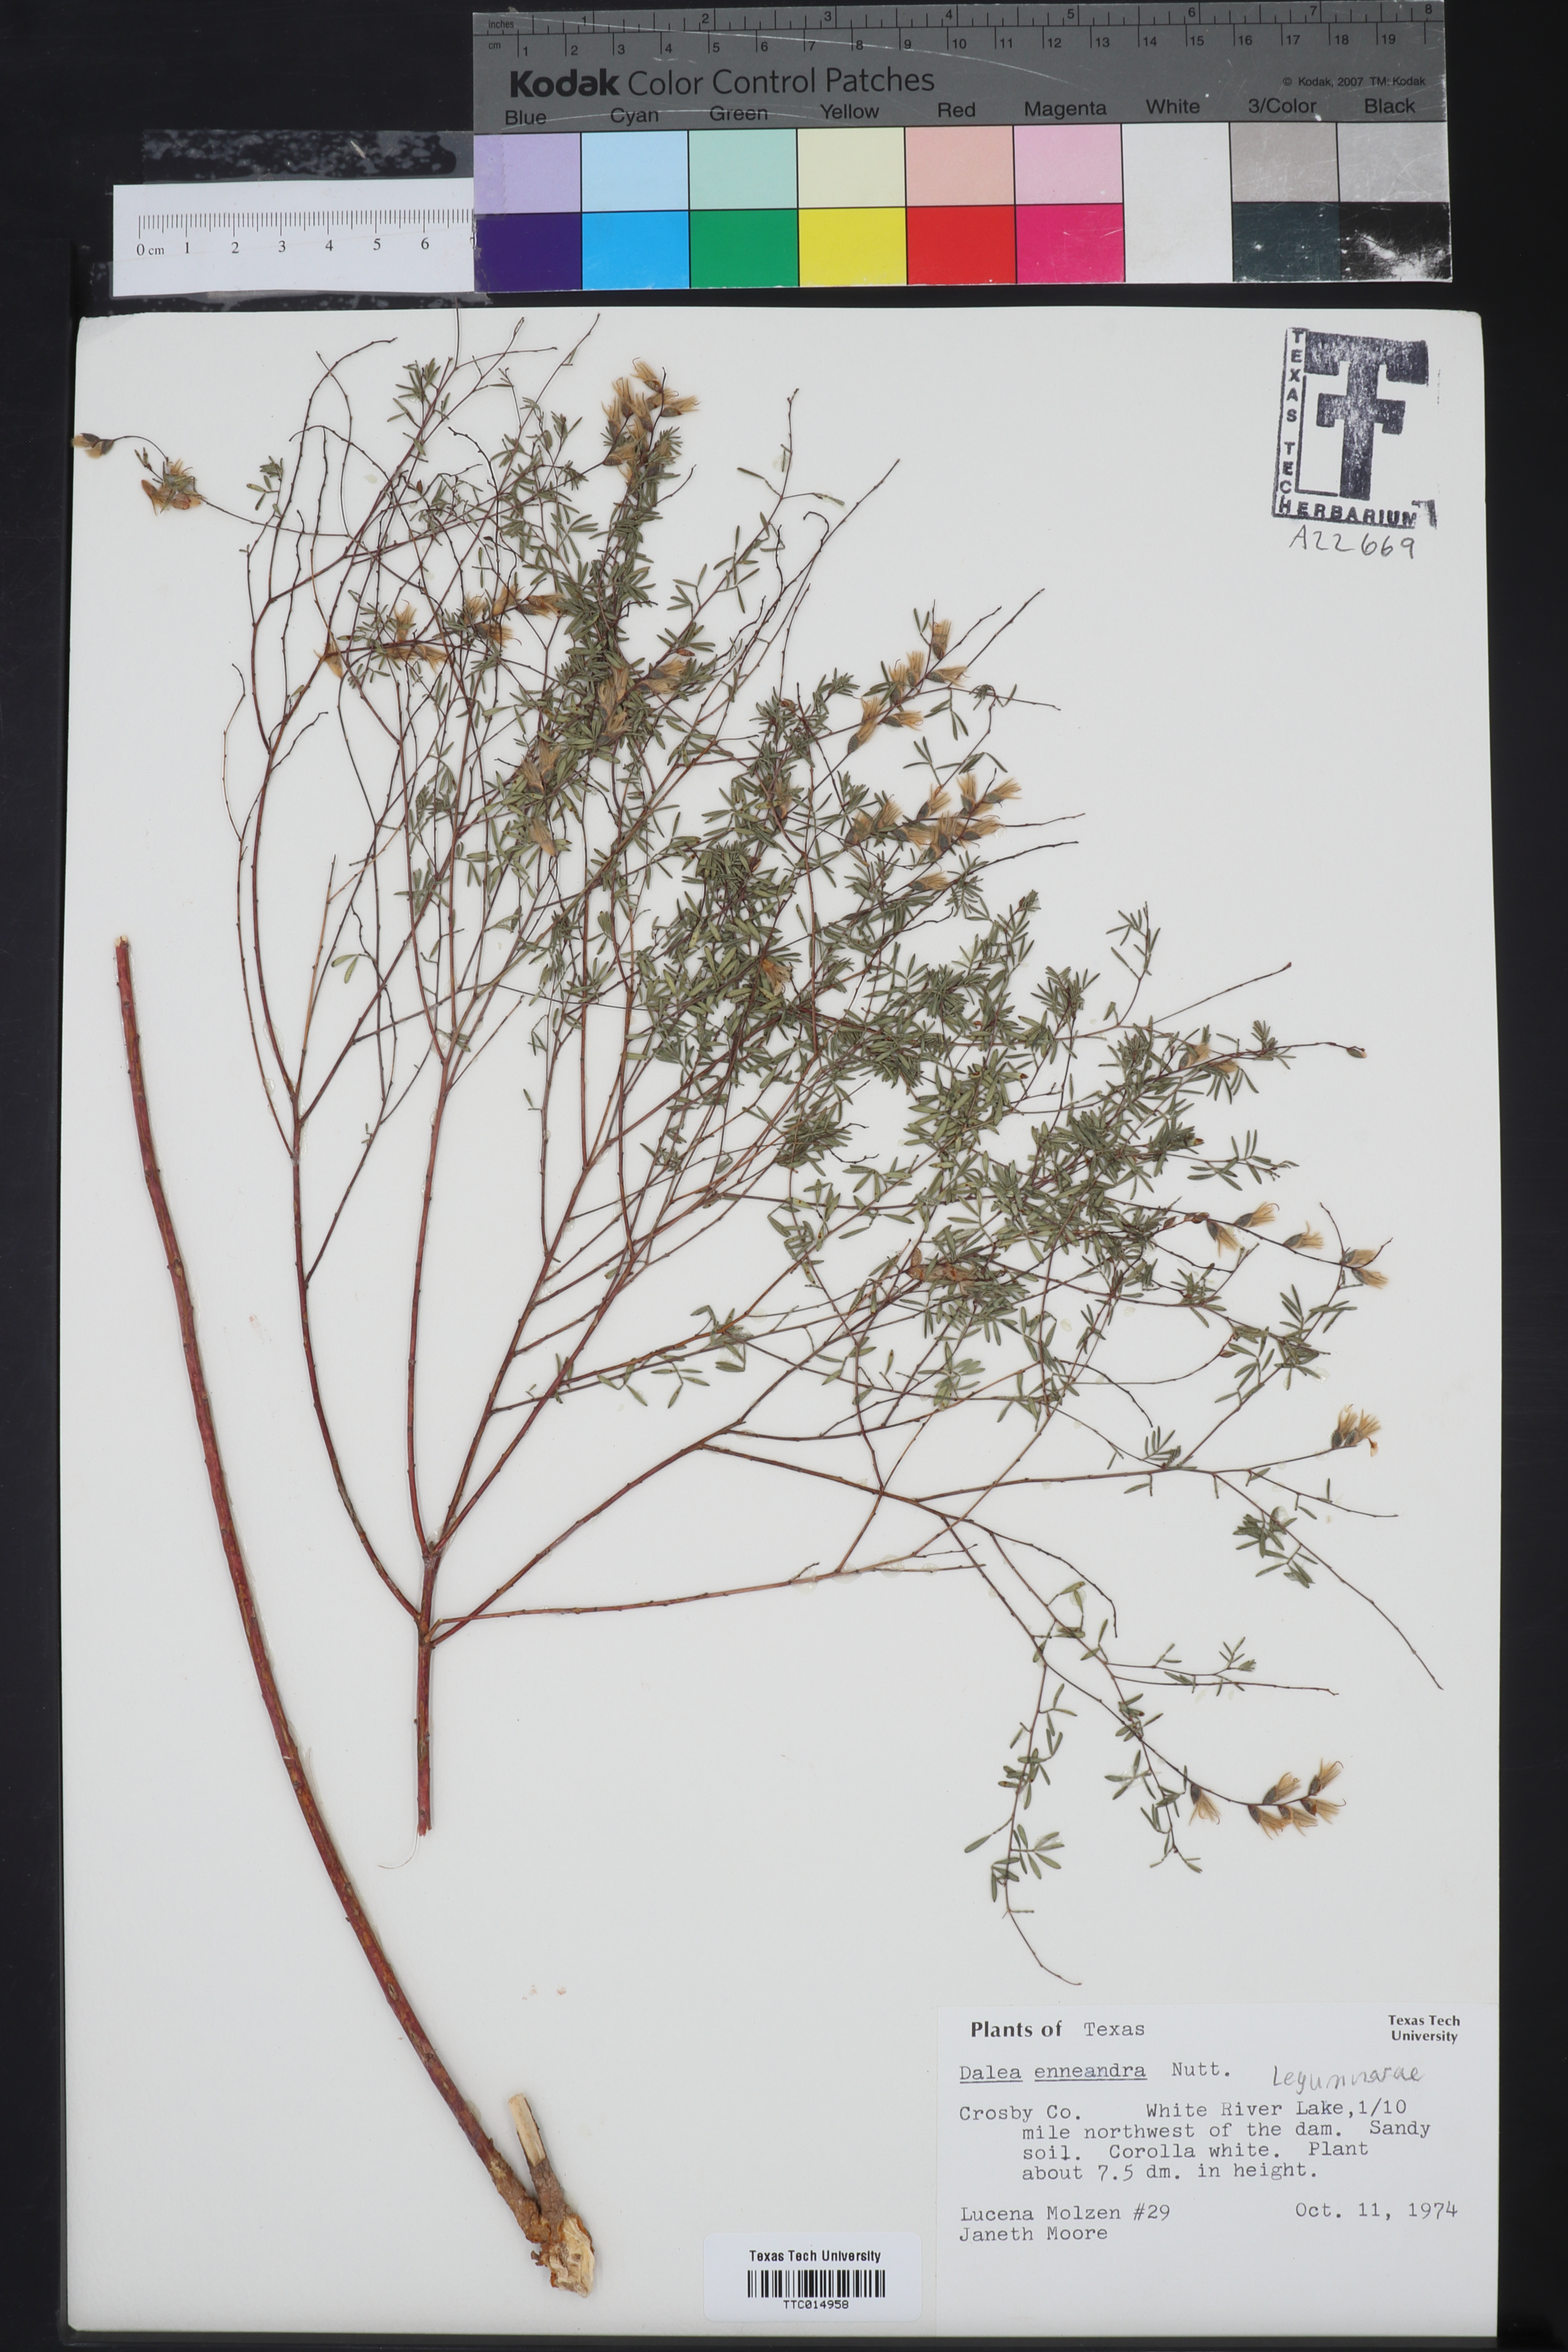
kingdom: Plantae
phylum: Tracheophyta
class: Magnoliopsida
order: Fabales
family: Fabaceae
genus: Dalea
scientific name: Dalea enneandra
